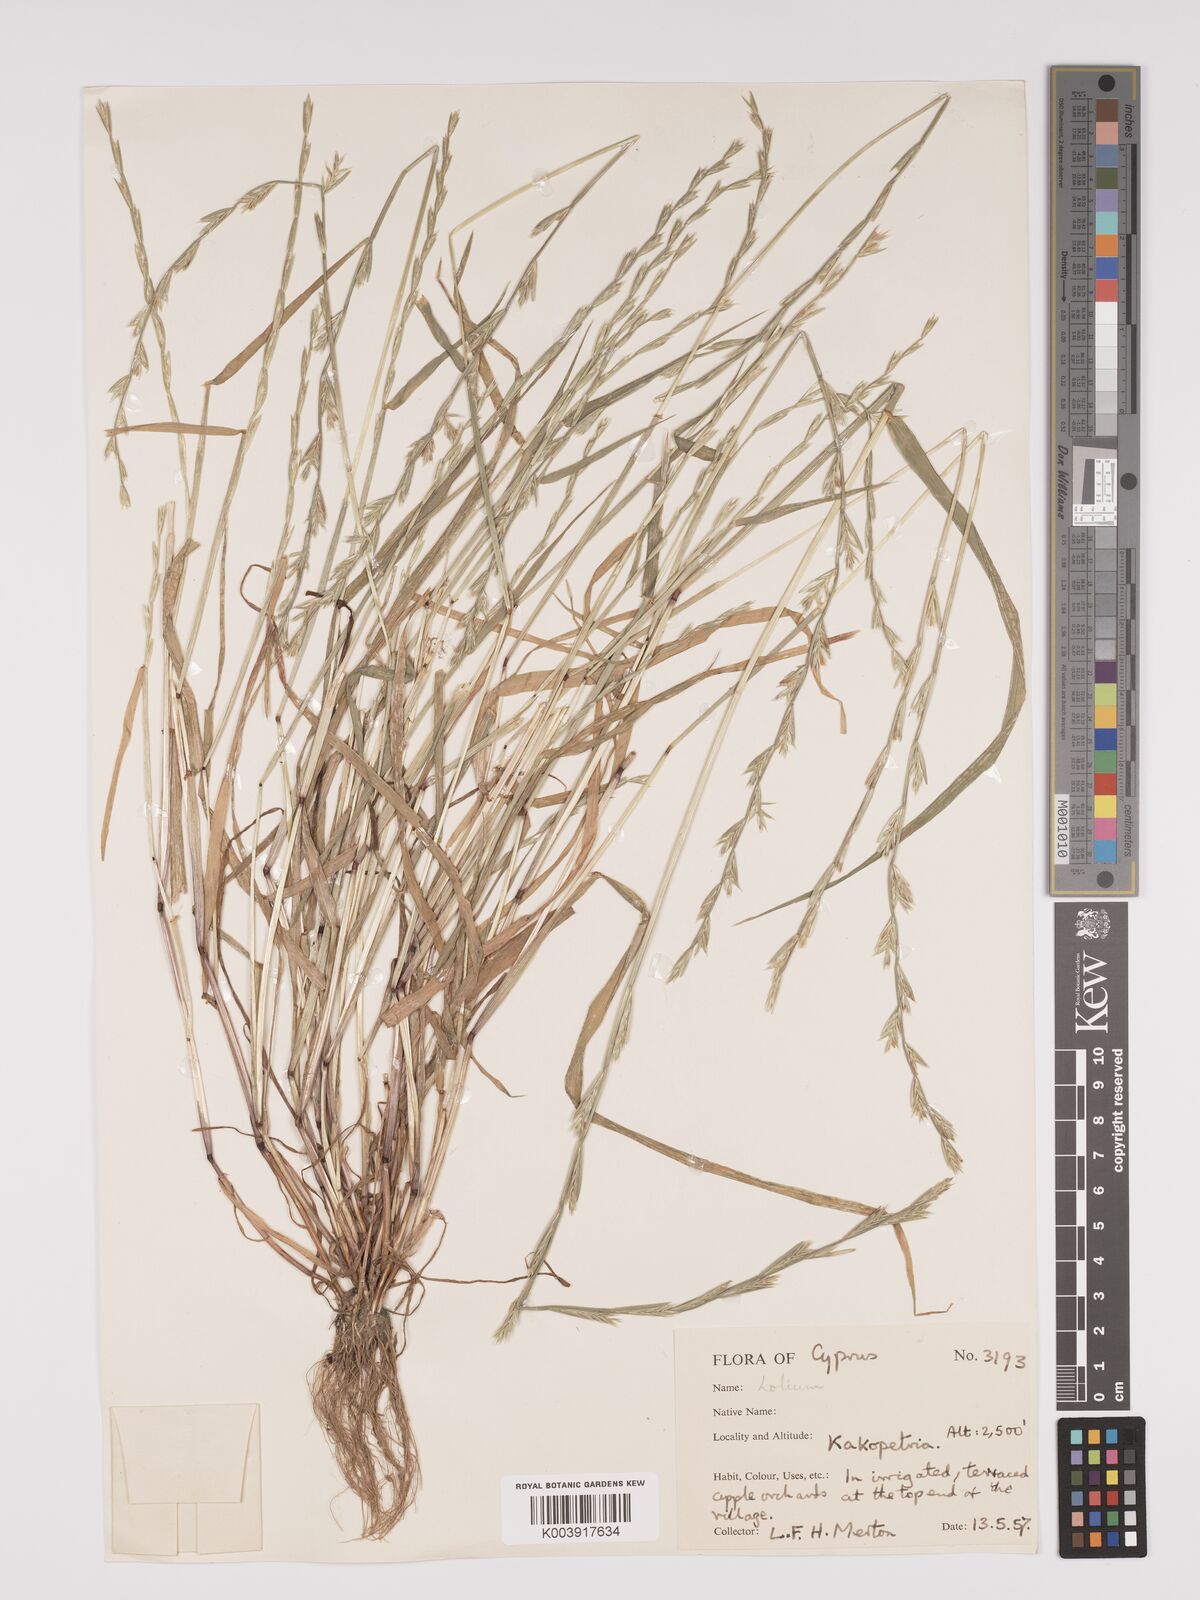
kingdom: Plantae
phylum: Tracheophyta
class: Liliopsida
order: Poales
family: Poaceae
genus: Lolium
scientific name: Lolium
